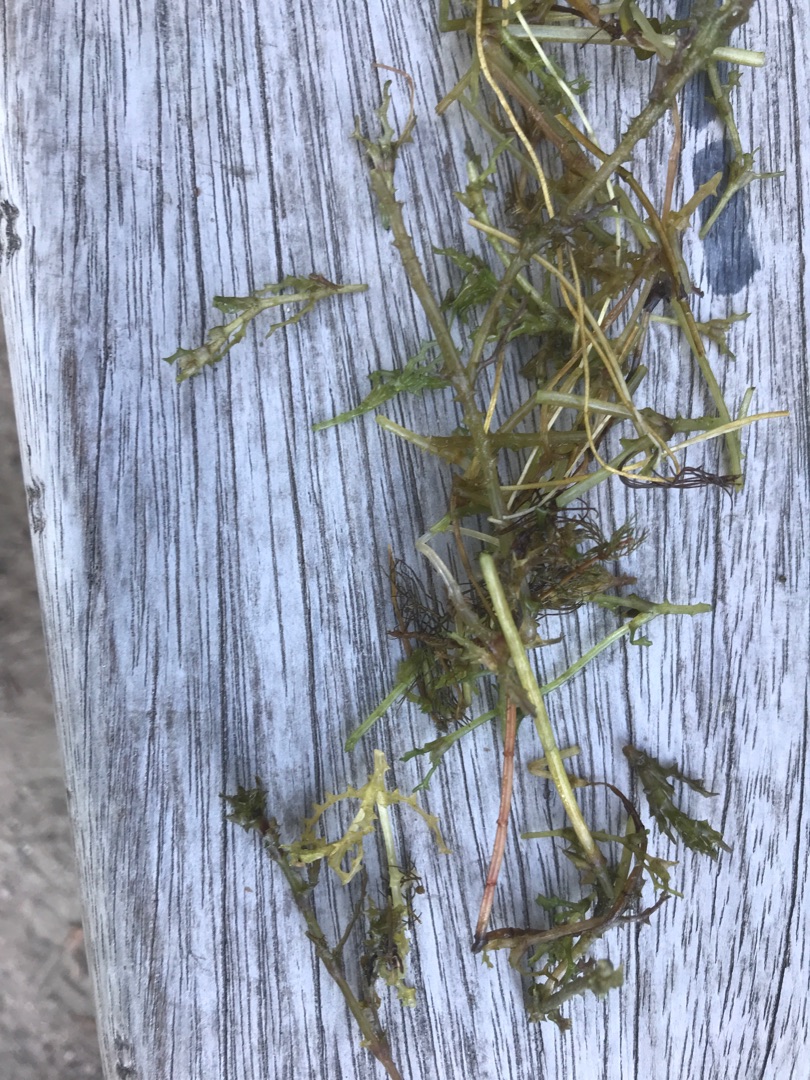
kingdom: Plantae
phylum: Tracheophyta
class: Liliopsida
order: Alismatales
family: Hydrocharitaceae
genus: Najas
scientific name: Najas marina
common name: Stor najade
